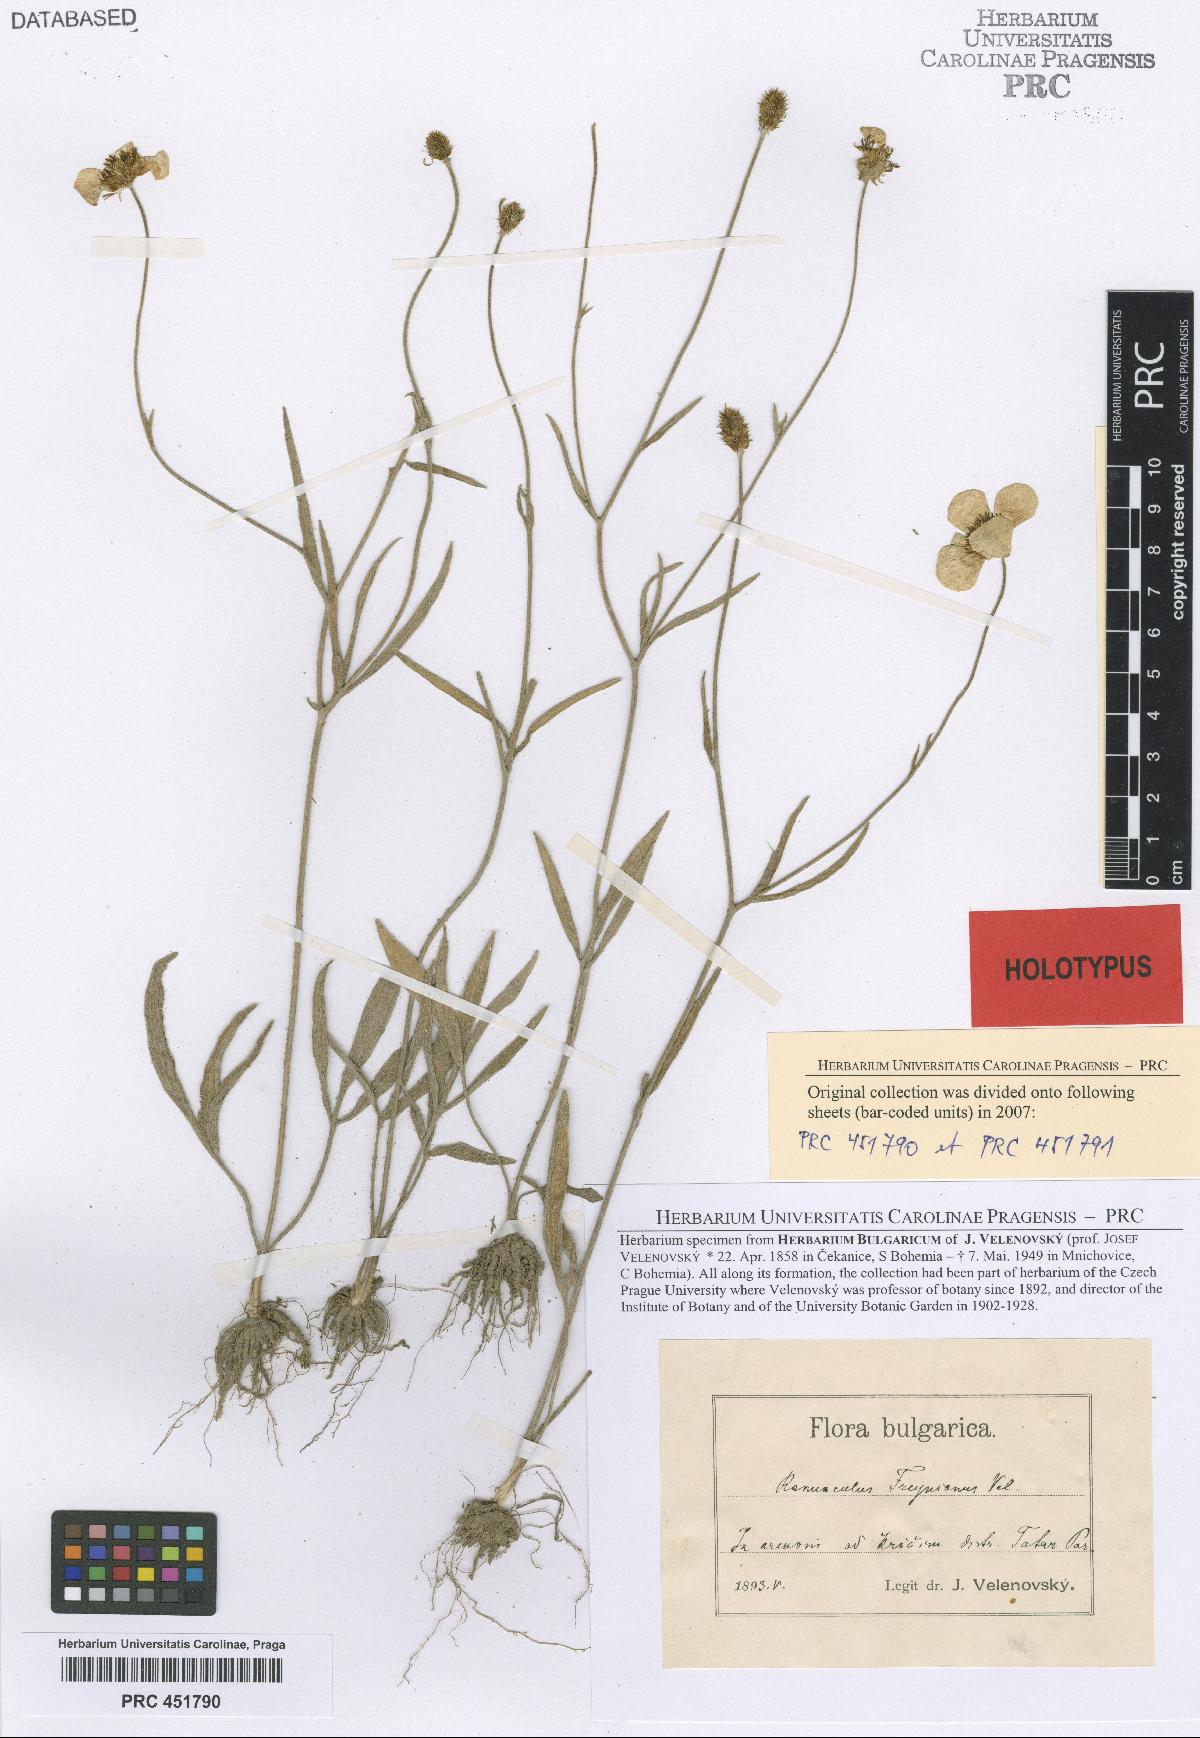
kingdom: Plantae
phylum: Tracheophyta
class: Magnoliopsida
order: Ranunculales
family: Ranunculaceae
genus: Ranunculus
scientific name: Ranunculus illyricus
